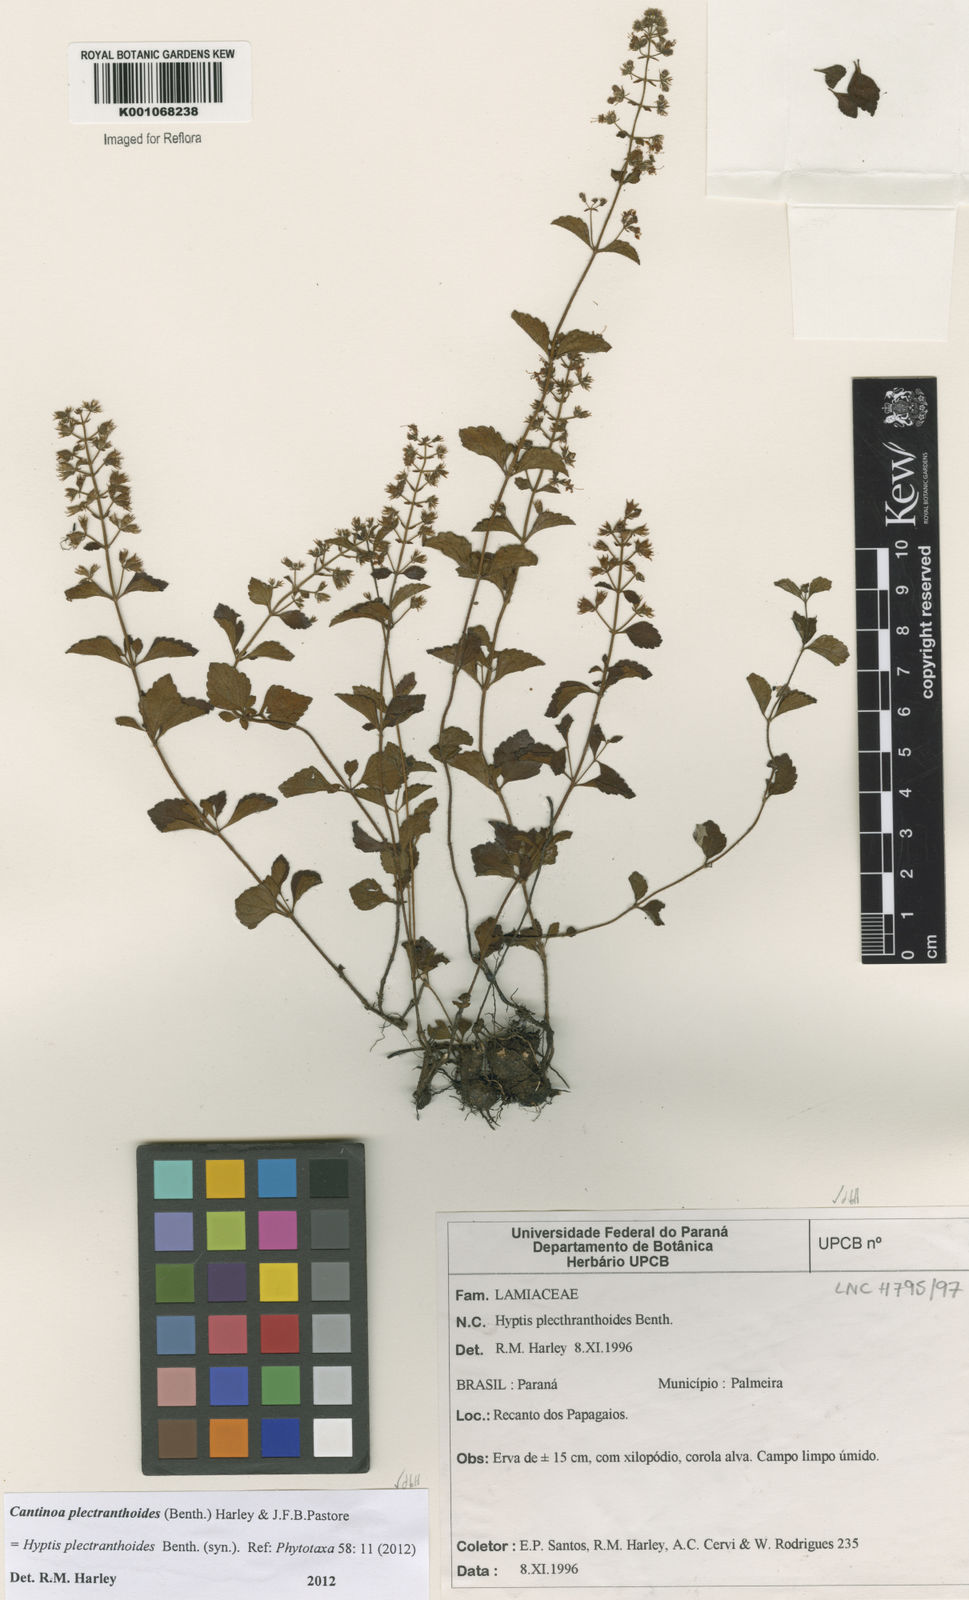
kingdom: Plantae
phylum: Tracheophyta
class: Magnoliopsida
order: Lamiales
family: Lamiaceae
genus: Cantinoa
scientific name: Cantinoa plectranthoides
